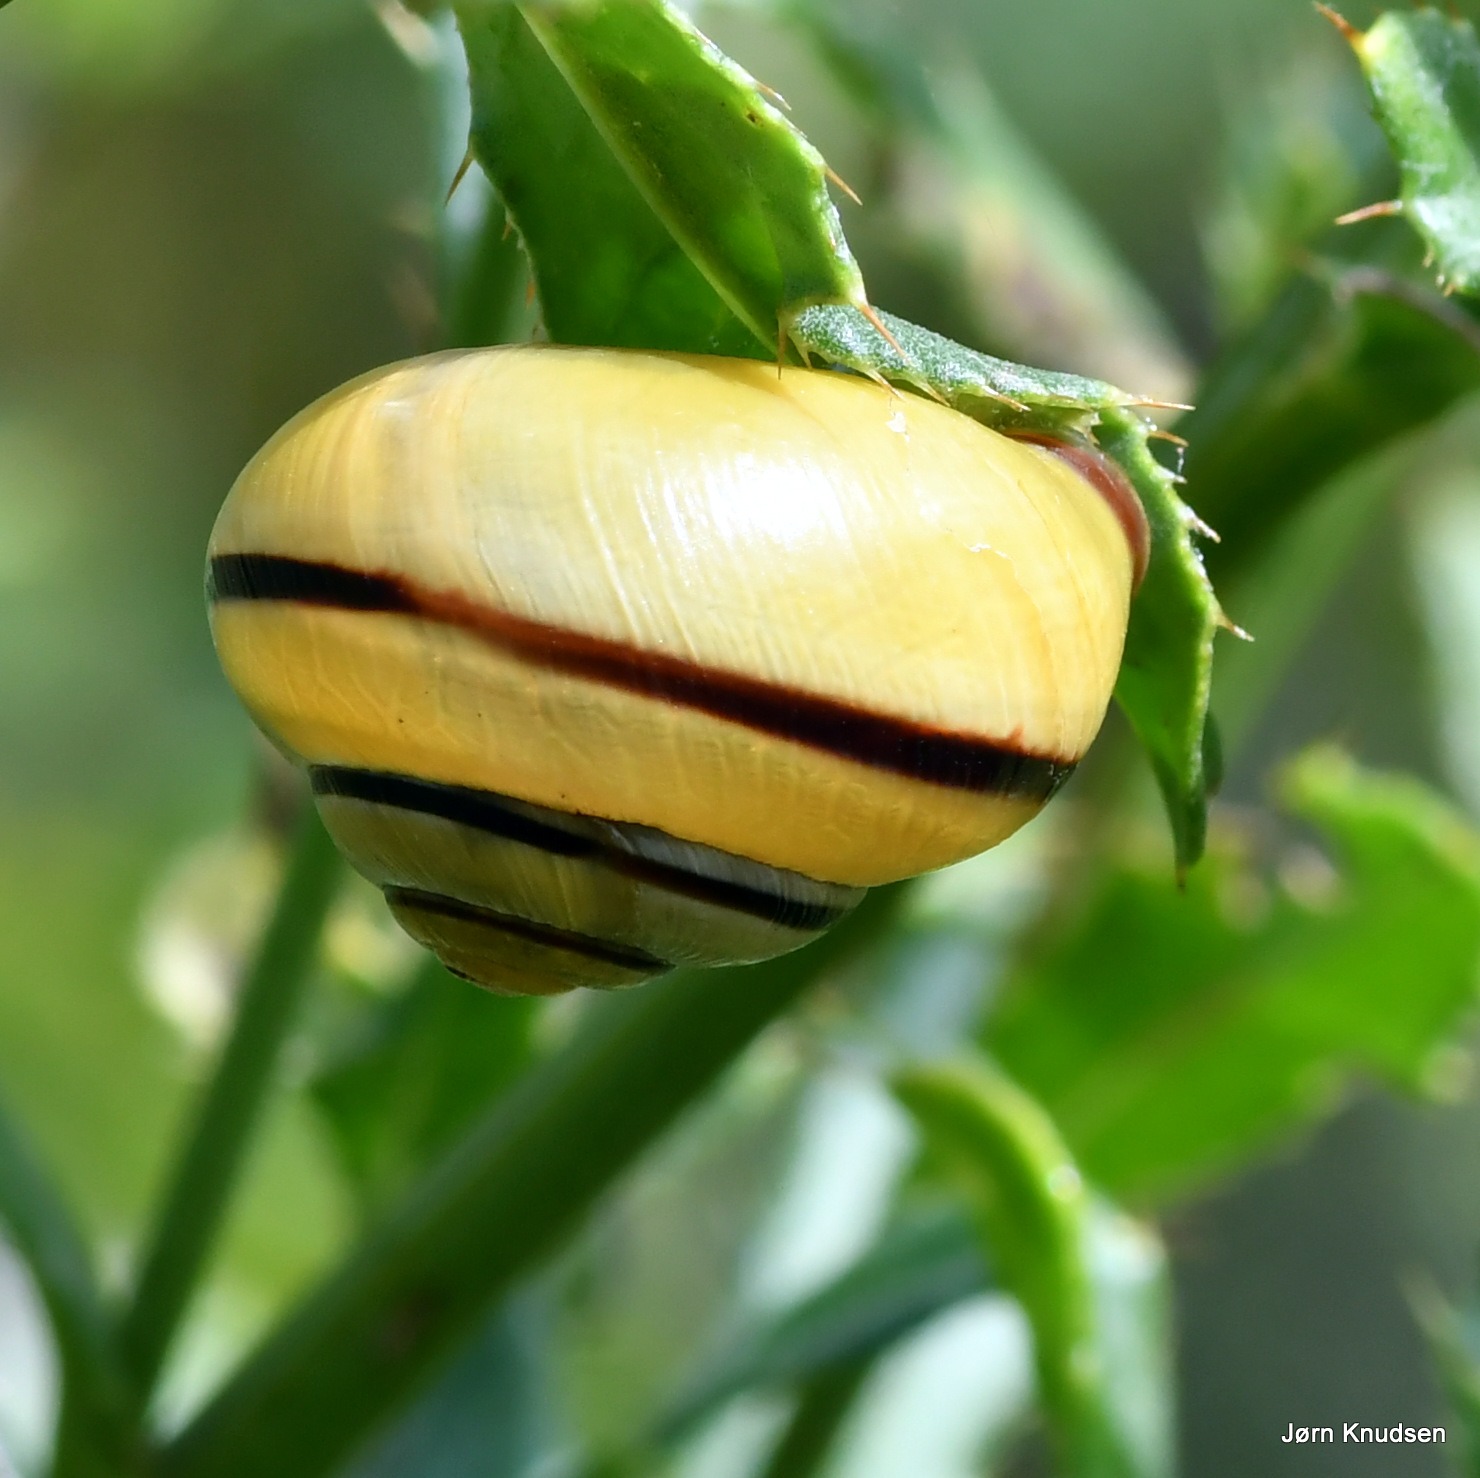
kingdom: Animalia
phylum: Mollusca
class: Gastropoda
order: Stylommatophora
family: Helicidae
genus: Cepaea
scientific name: Cepaea nemoralis
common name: Lundsnegl
